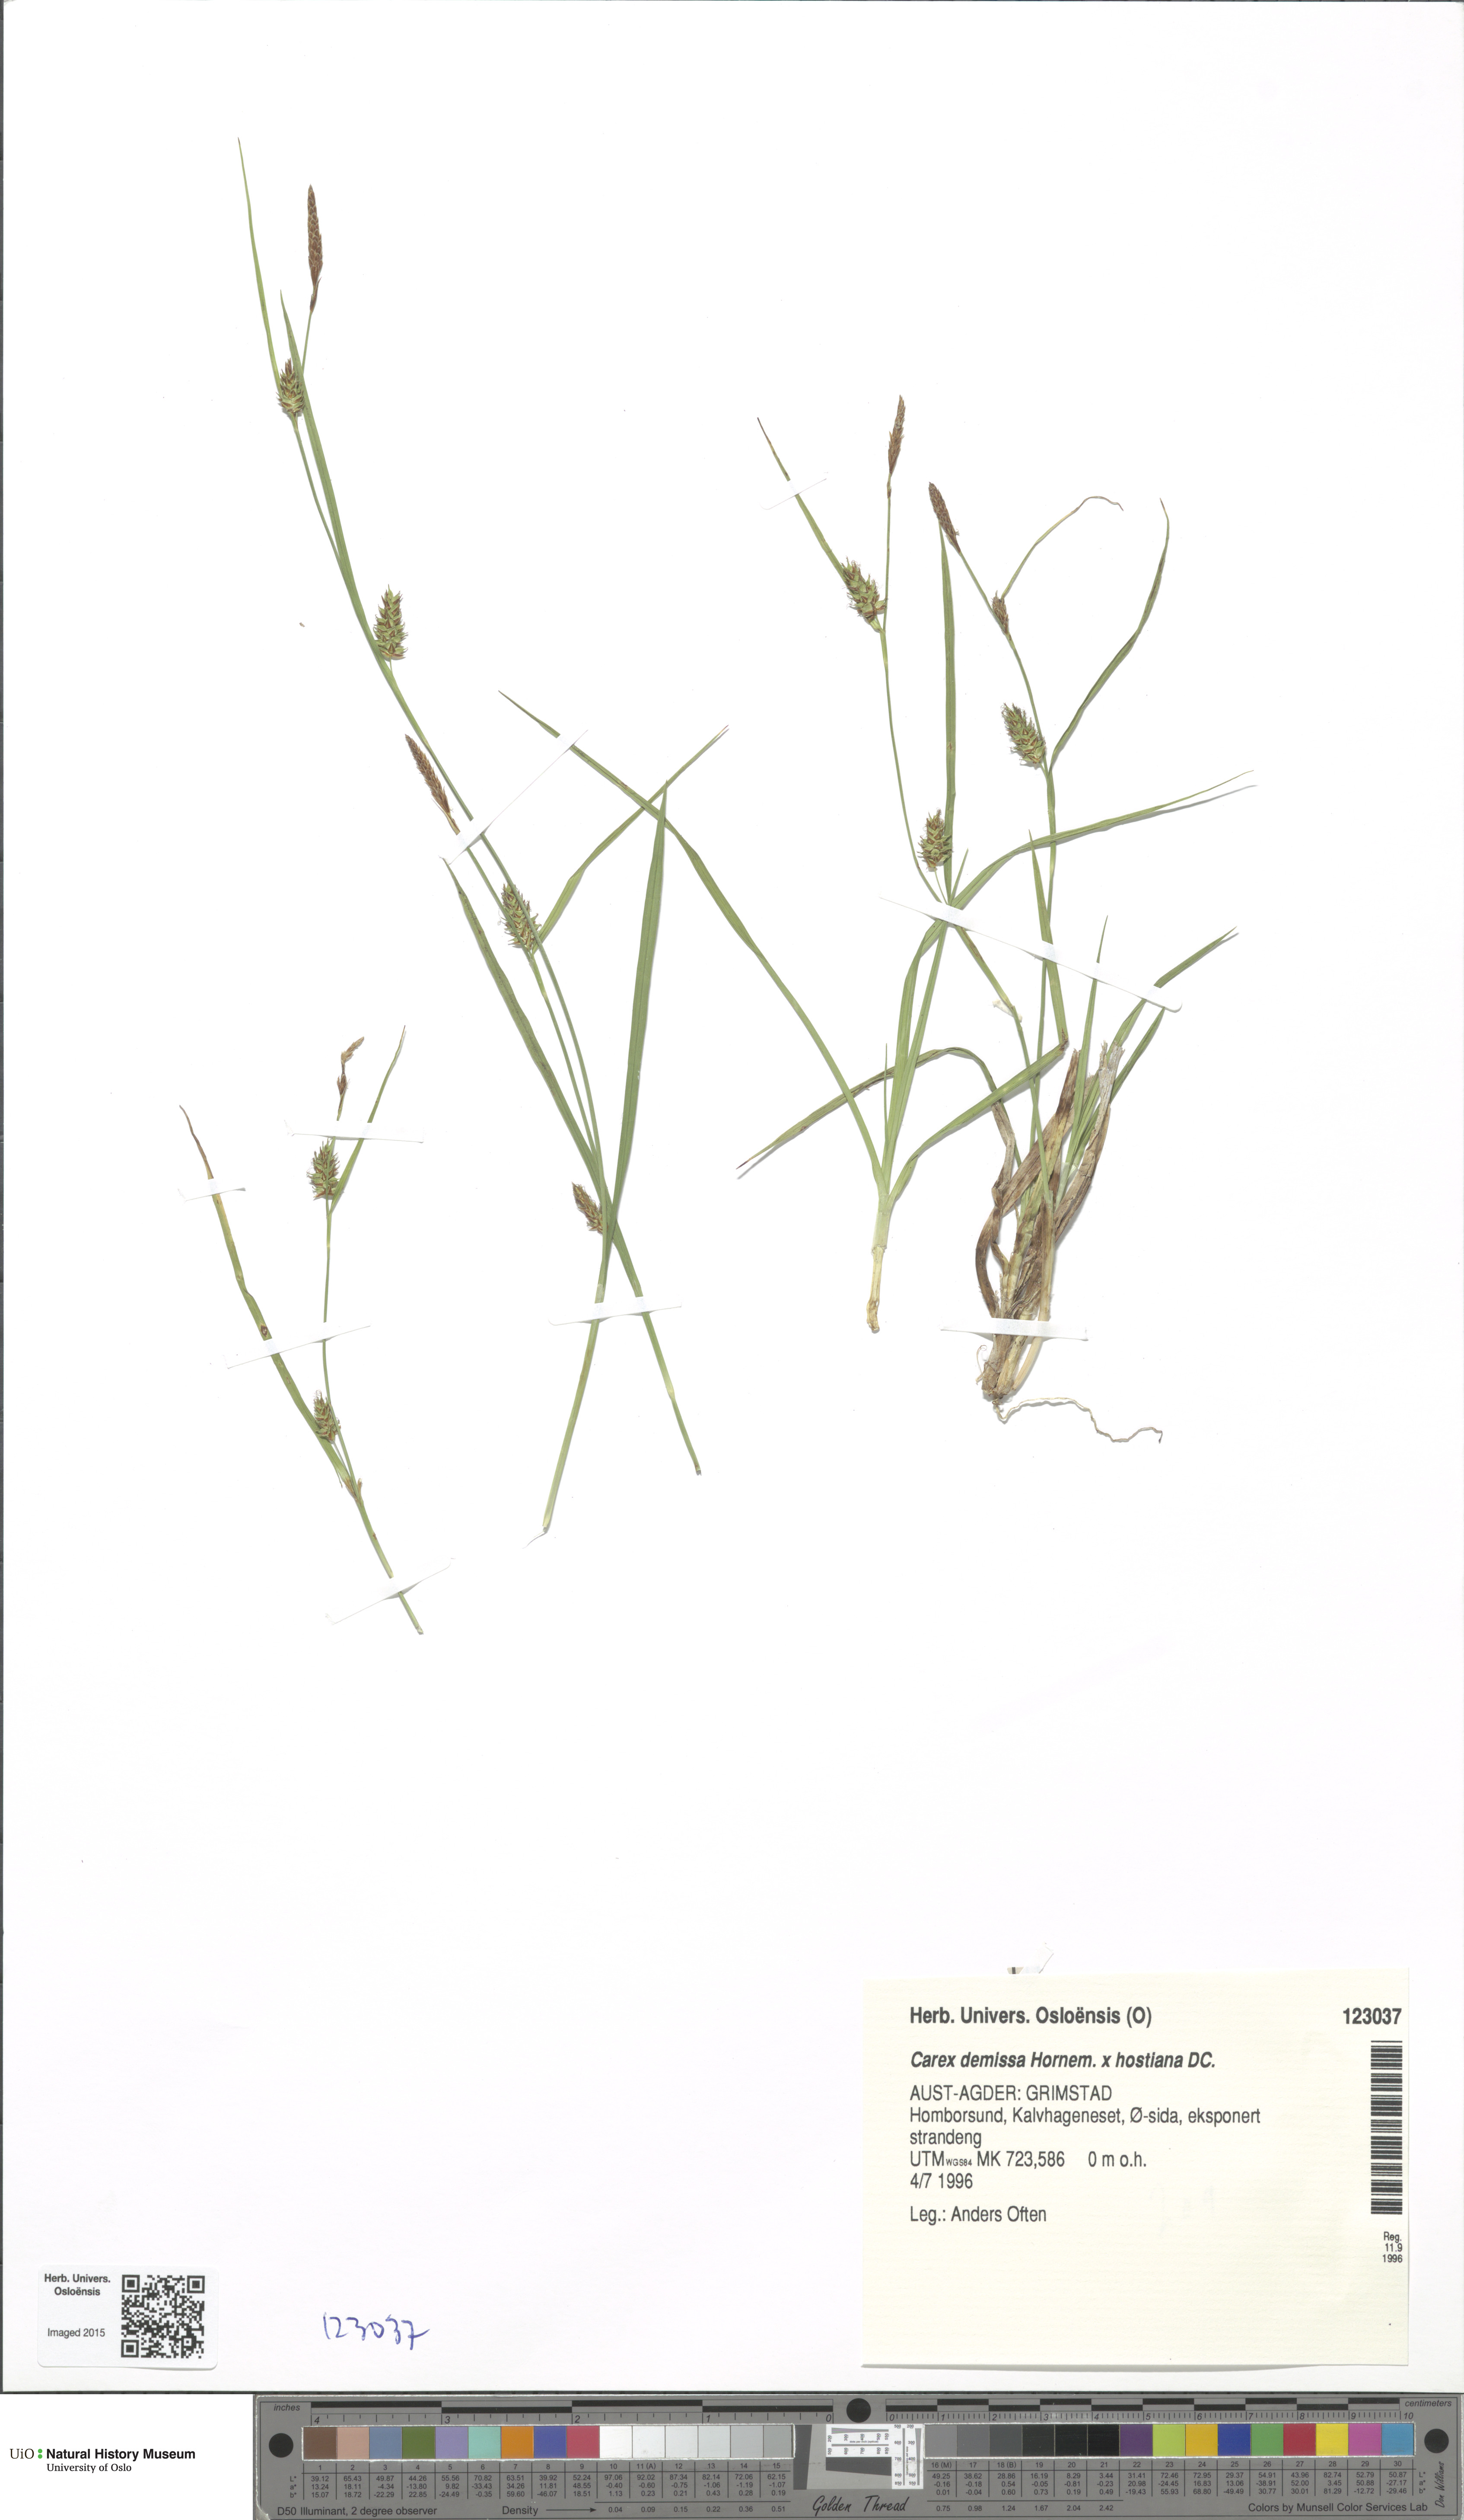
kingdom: Plantae
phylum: Tracheophyta
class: Magnoliopsida
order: Dipsacales
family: Viburnaceae
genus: Adoxa
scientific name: Adoxa moschatellina
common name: Moschatel
